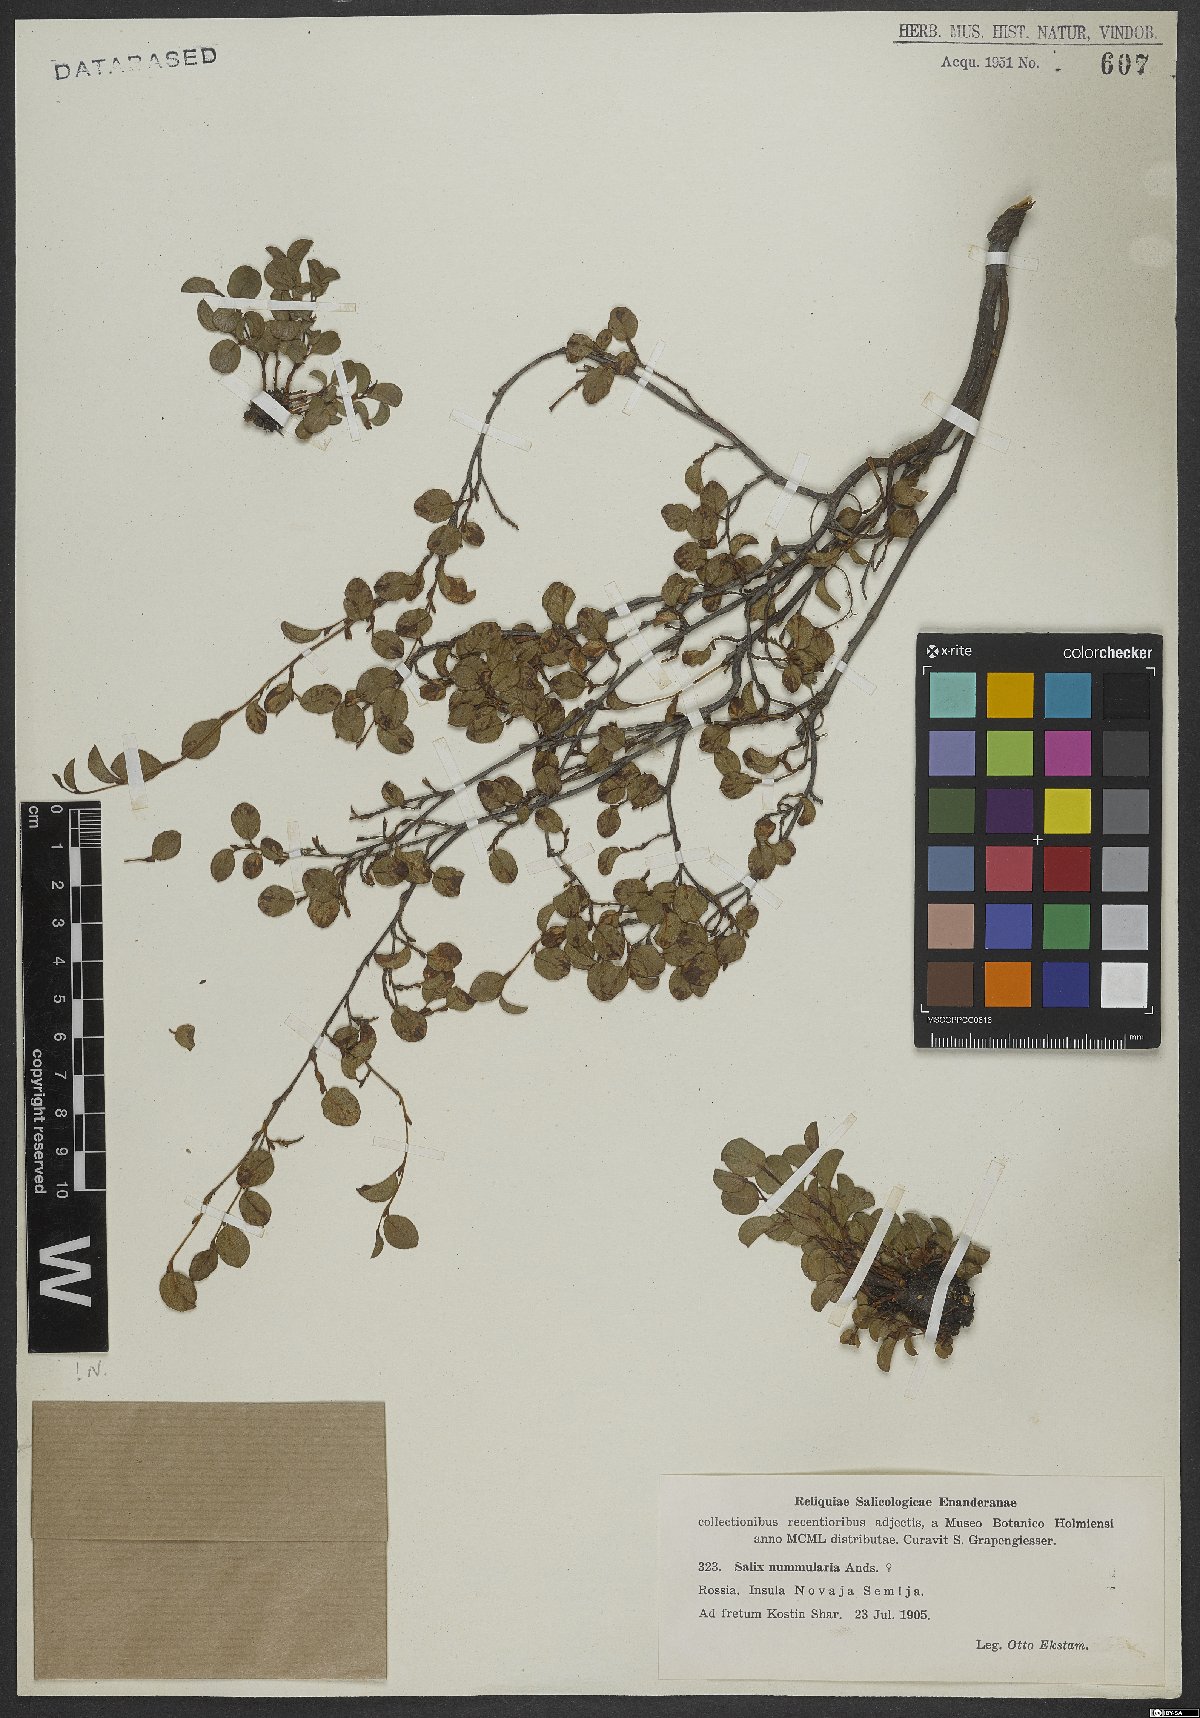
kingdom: Plantae
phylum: Tracheophyta
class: Magnoliopsida
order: Malpighiales
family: Salicaceae
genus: Salix
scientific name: Salix nummularia
